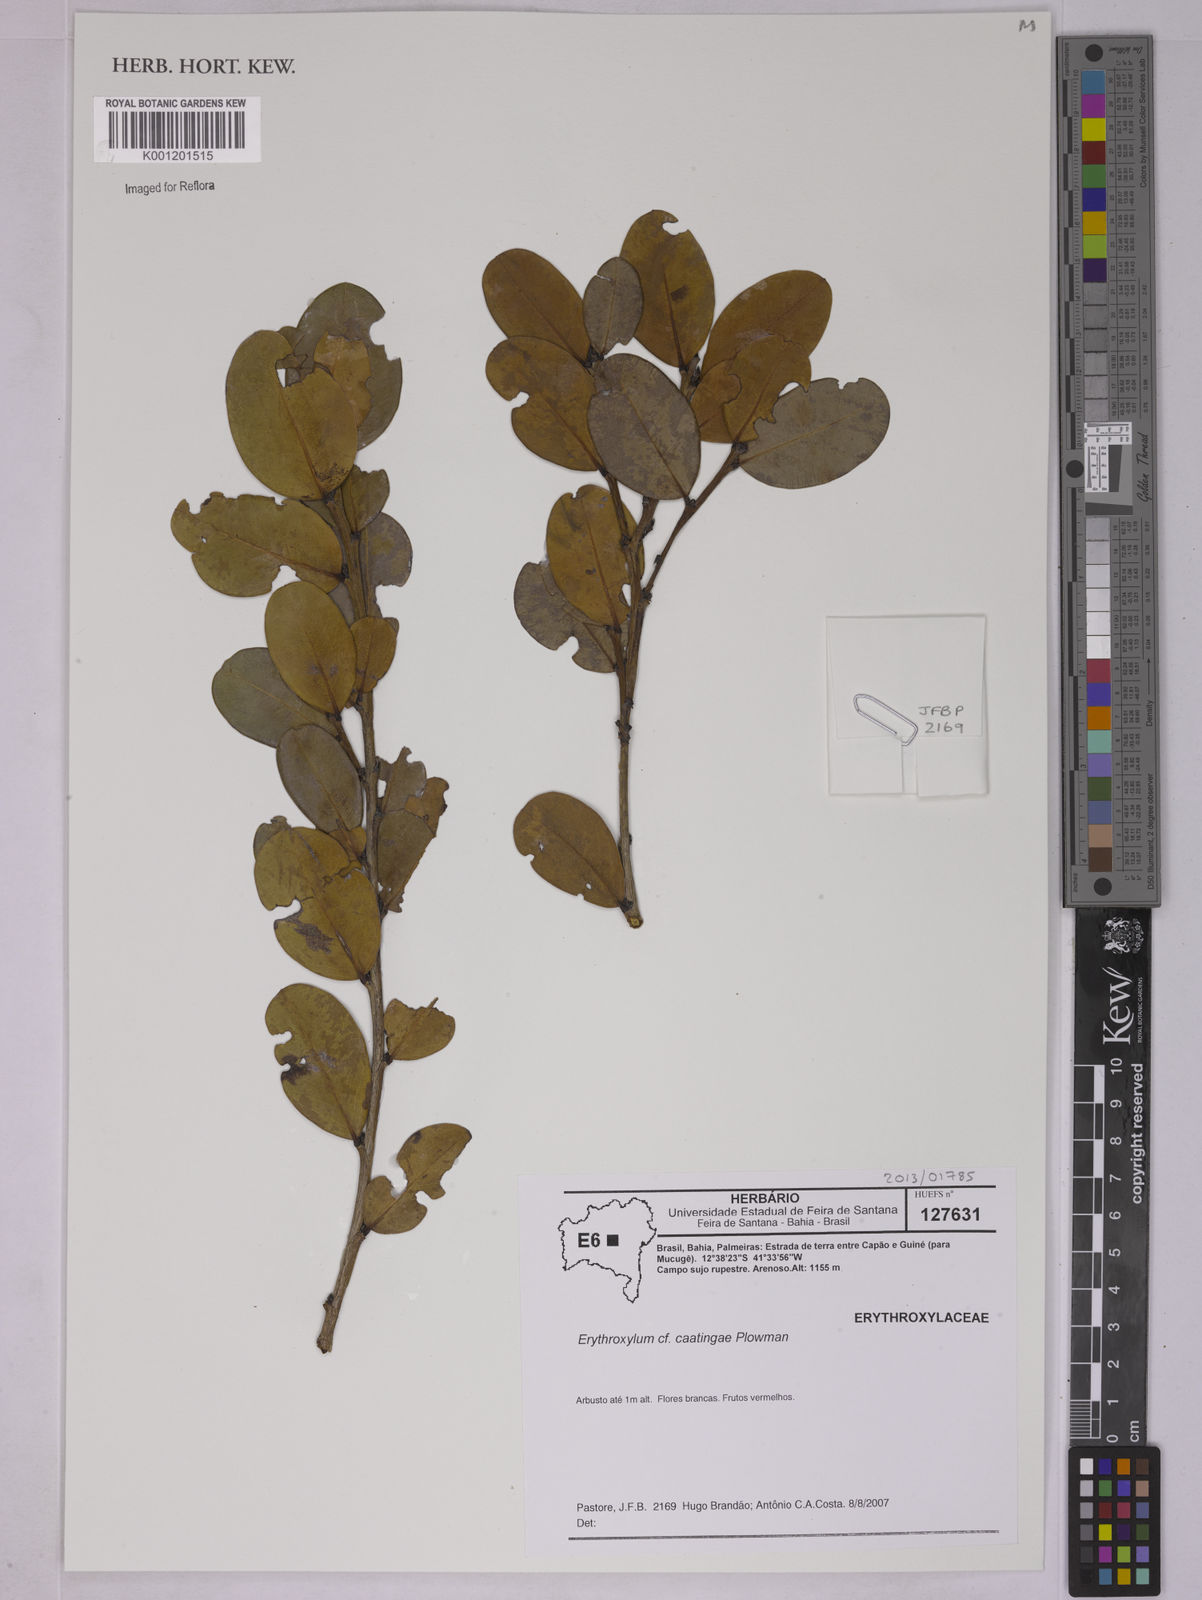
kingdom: Plantae
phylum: Tracheophyta
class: Magnoliopsida
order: Malpighiales
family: Erythroxylaceae
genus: Erythroxylum
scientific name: Erythroxylum caatingae
